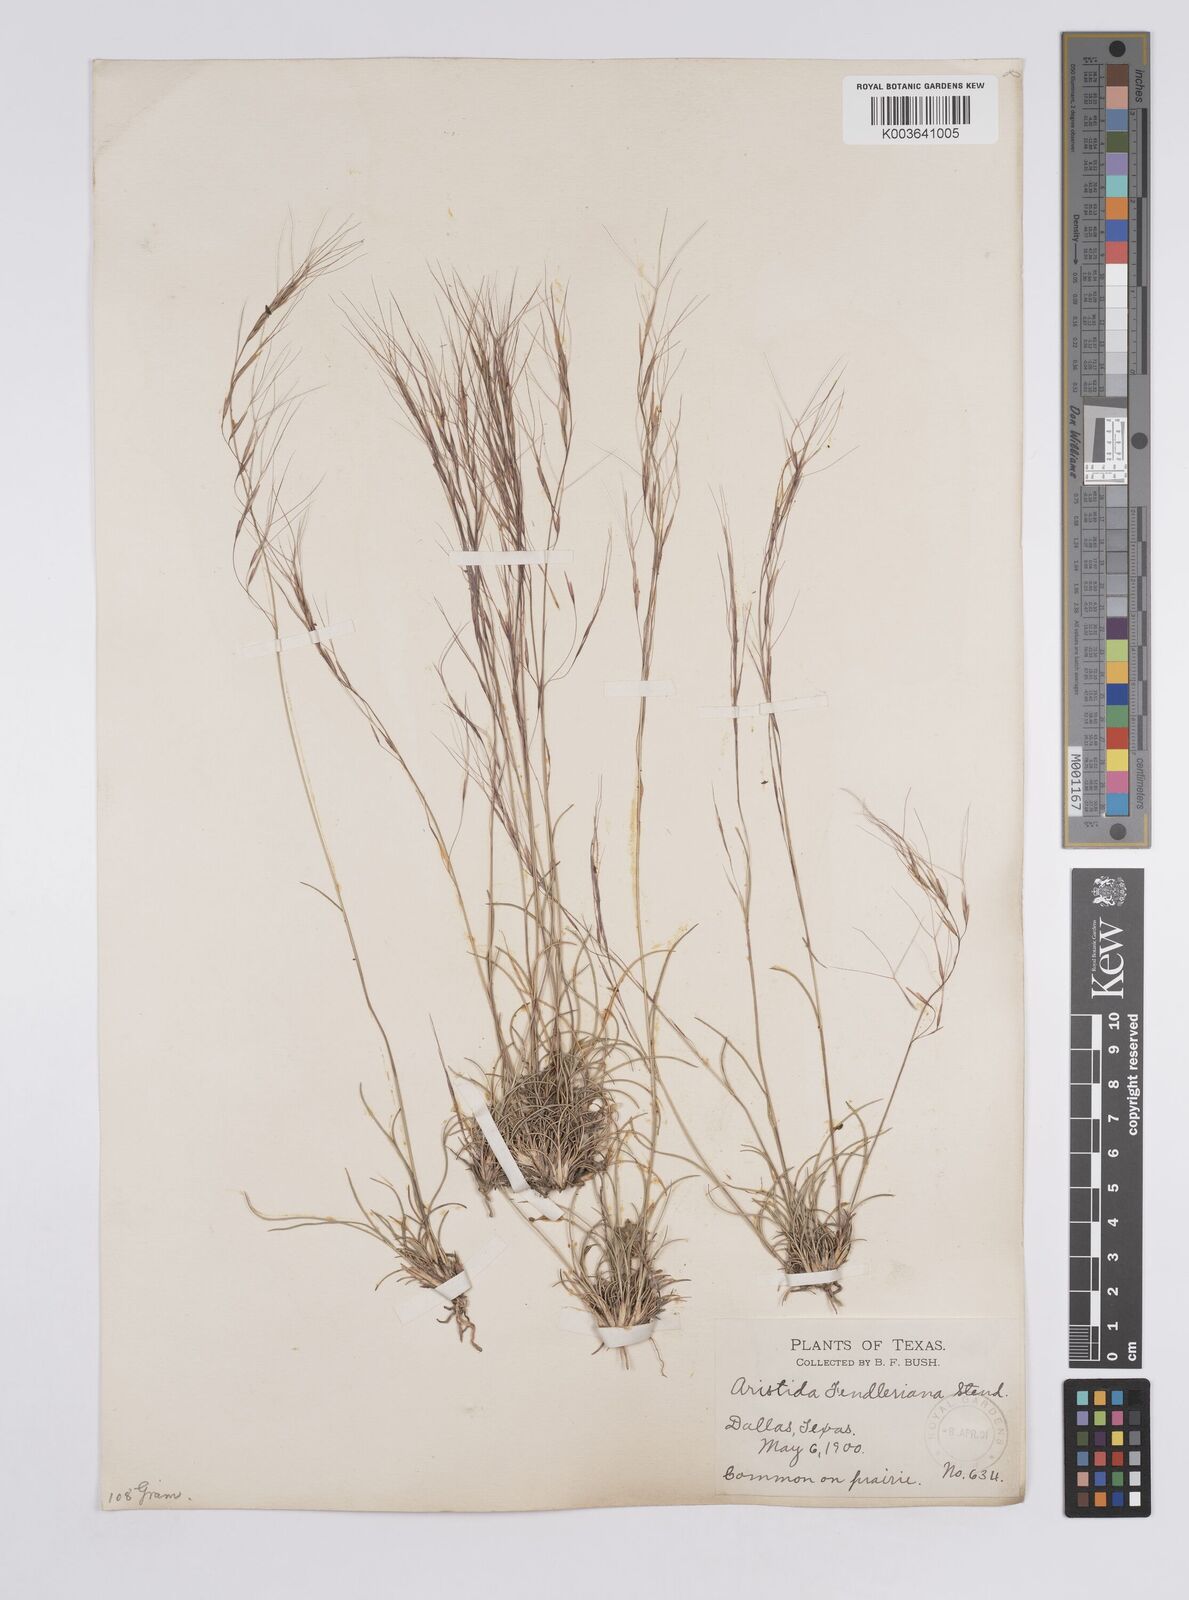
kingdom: Plantae
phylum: Tracheophyta
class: Liliopsida
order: Poales
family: Poaceae
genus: Aristida
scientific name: Aristida purpurea
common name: Purple threeawn
